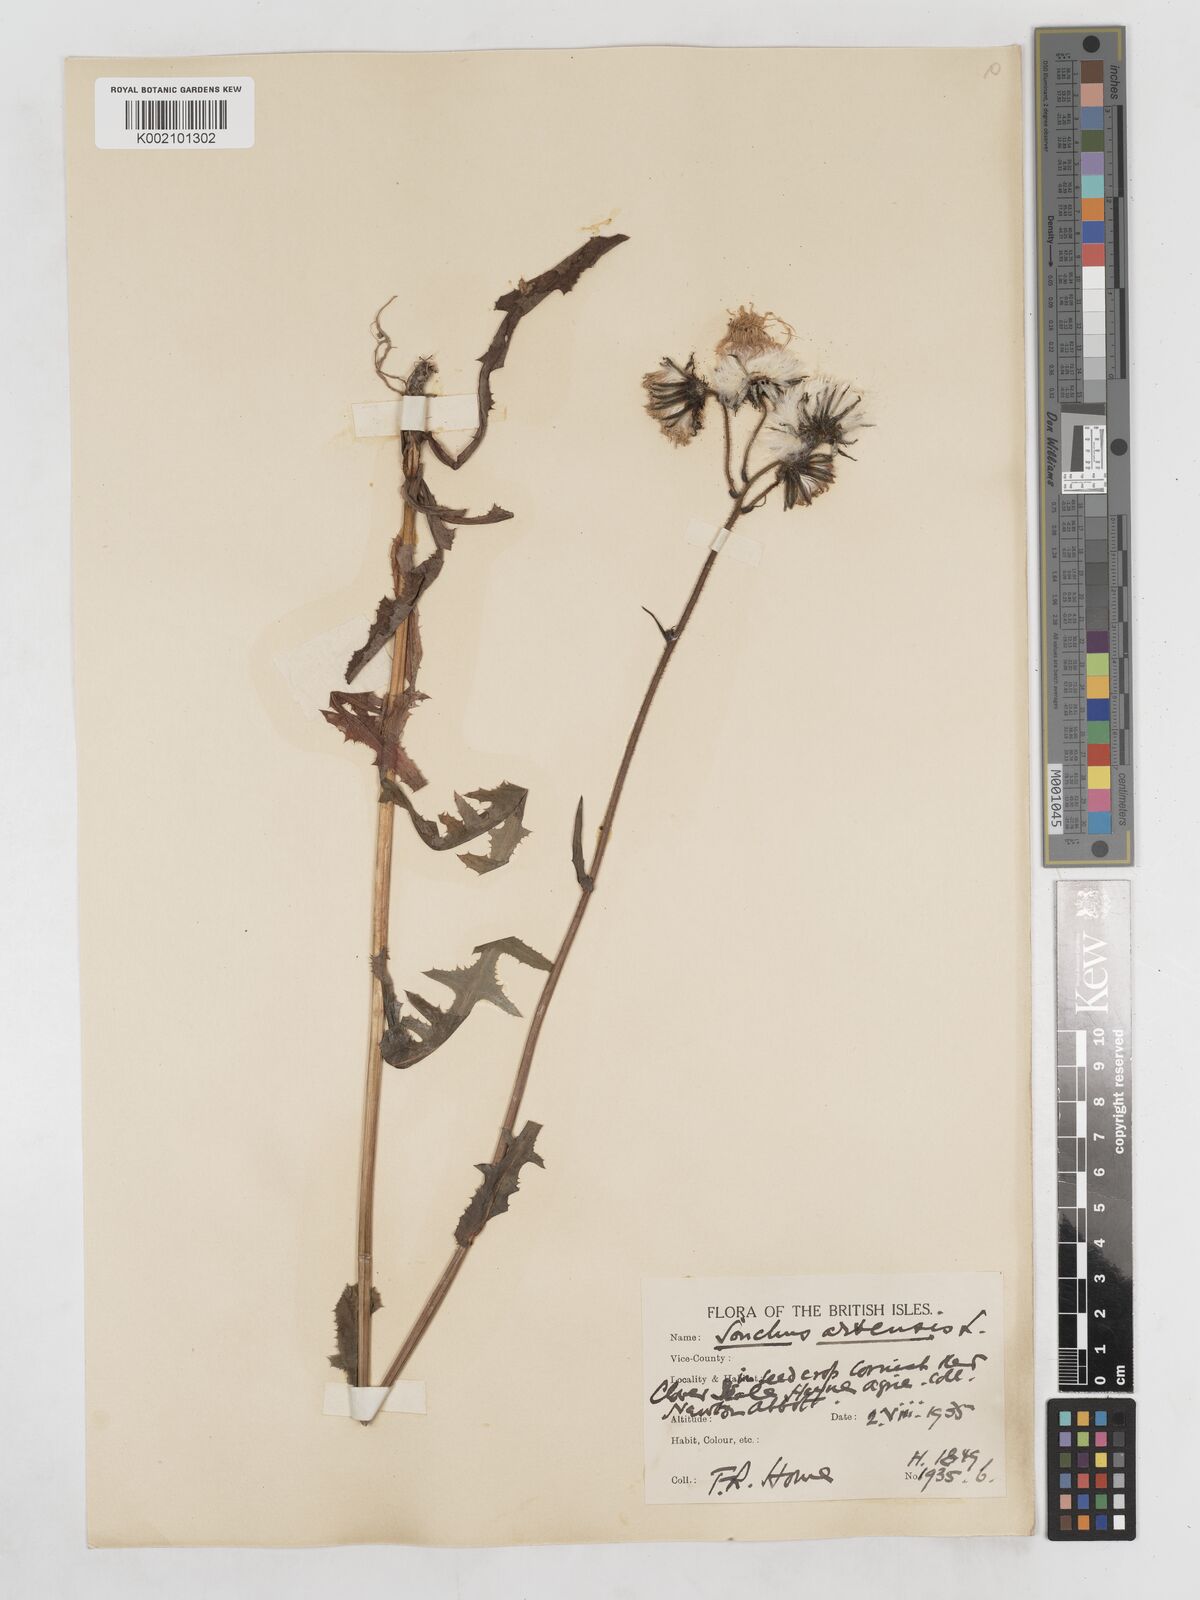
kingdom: Plantae
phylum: Tracheophyta
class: Magnoliopsida
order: Asterales
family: Asteraceae
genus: Sonchus
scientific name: Sonchus arvensis
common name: Perennial sow-thistle
